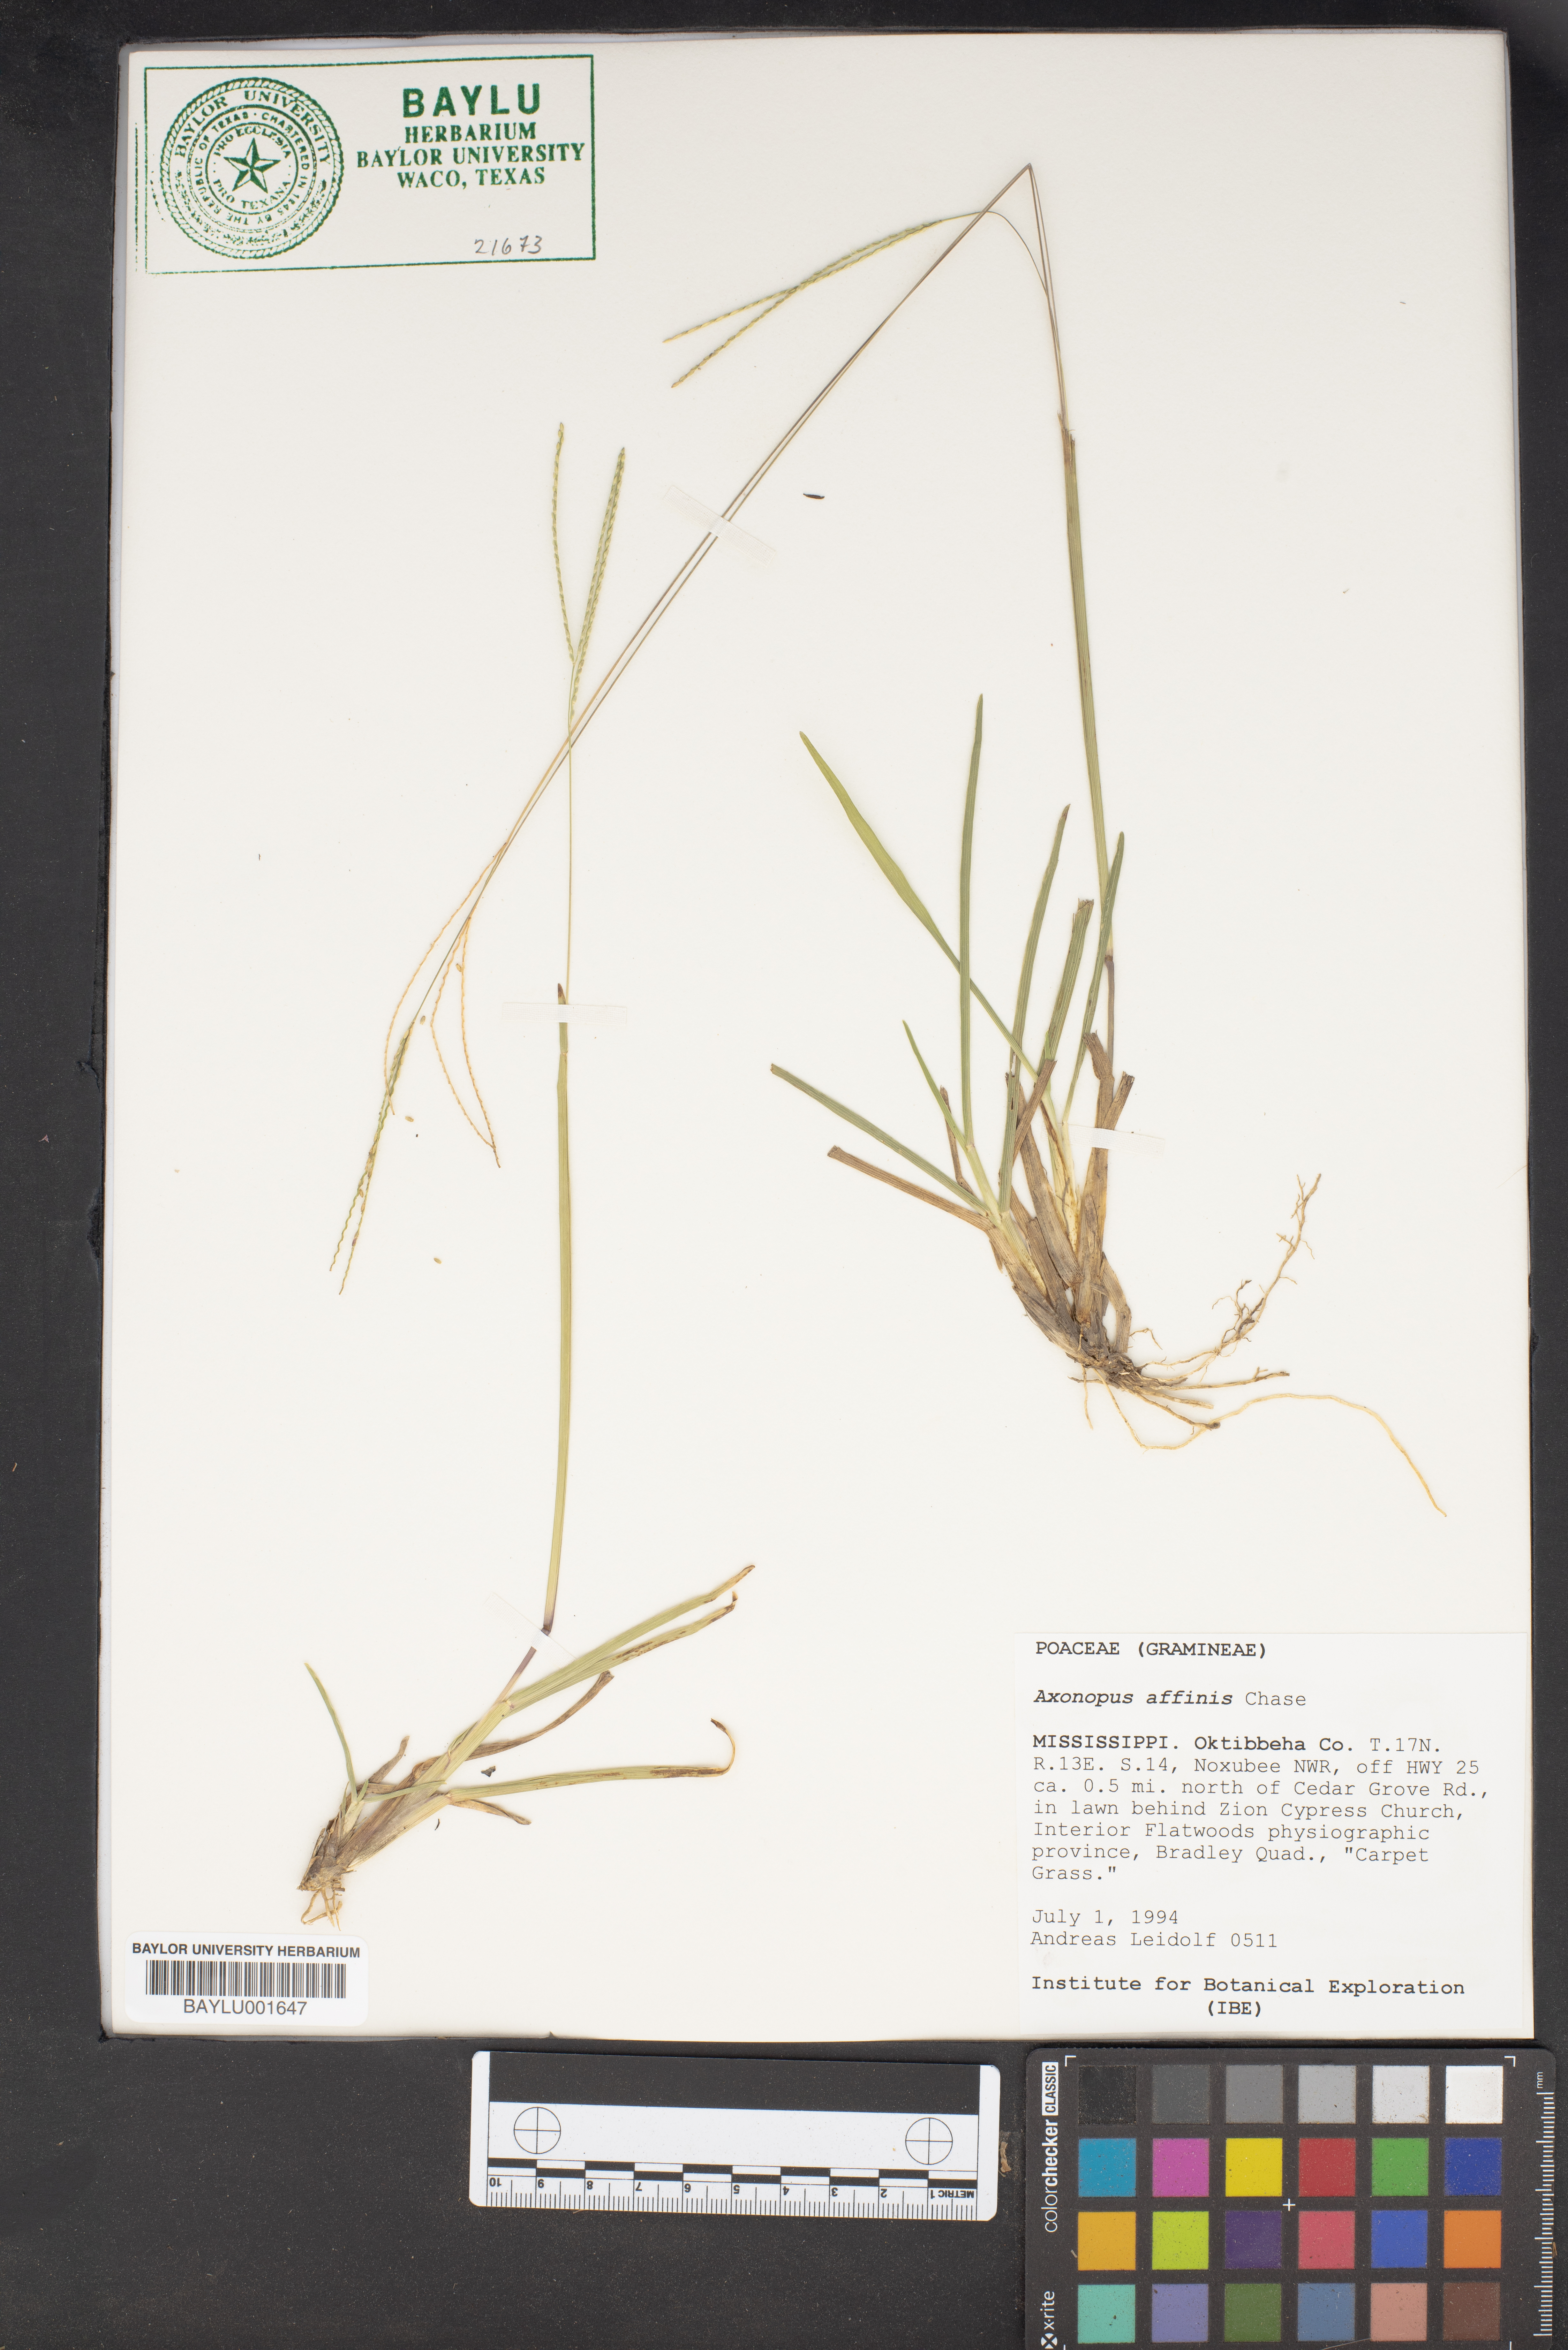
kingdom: Plantae
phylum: Tracheophyta
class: Liliopsida
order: Poales
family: Poaceae
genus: Axonopus
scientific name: Axonopus fissifolius
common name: Common carpetgrass
